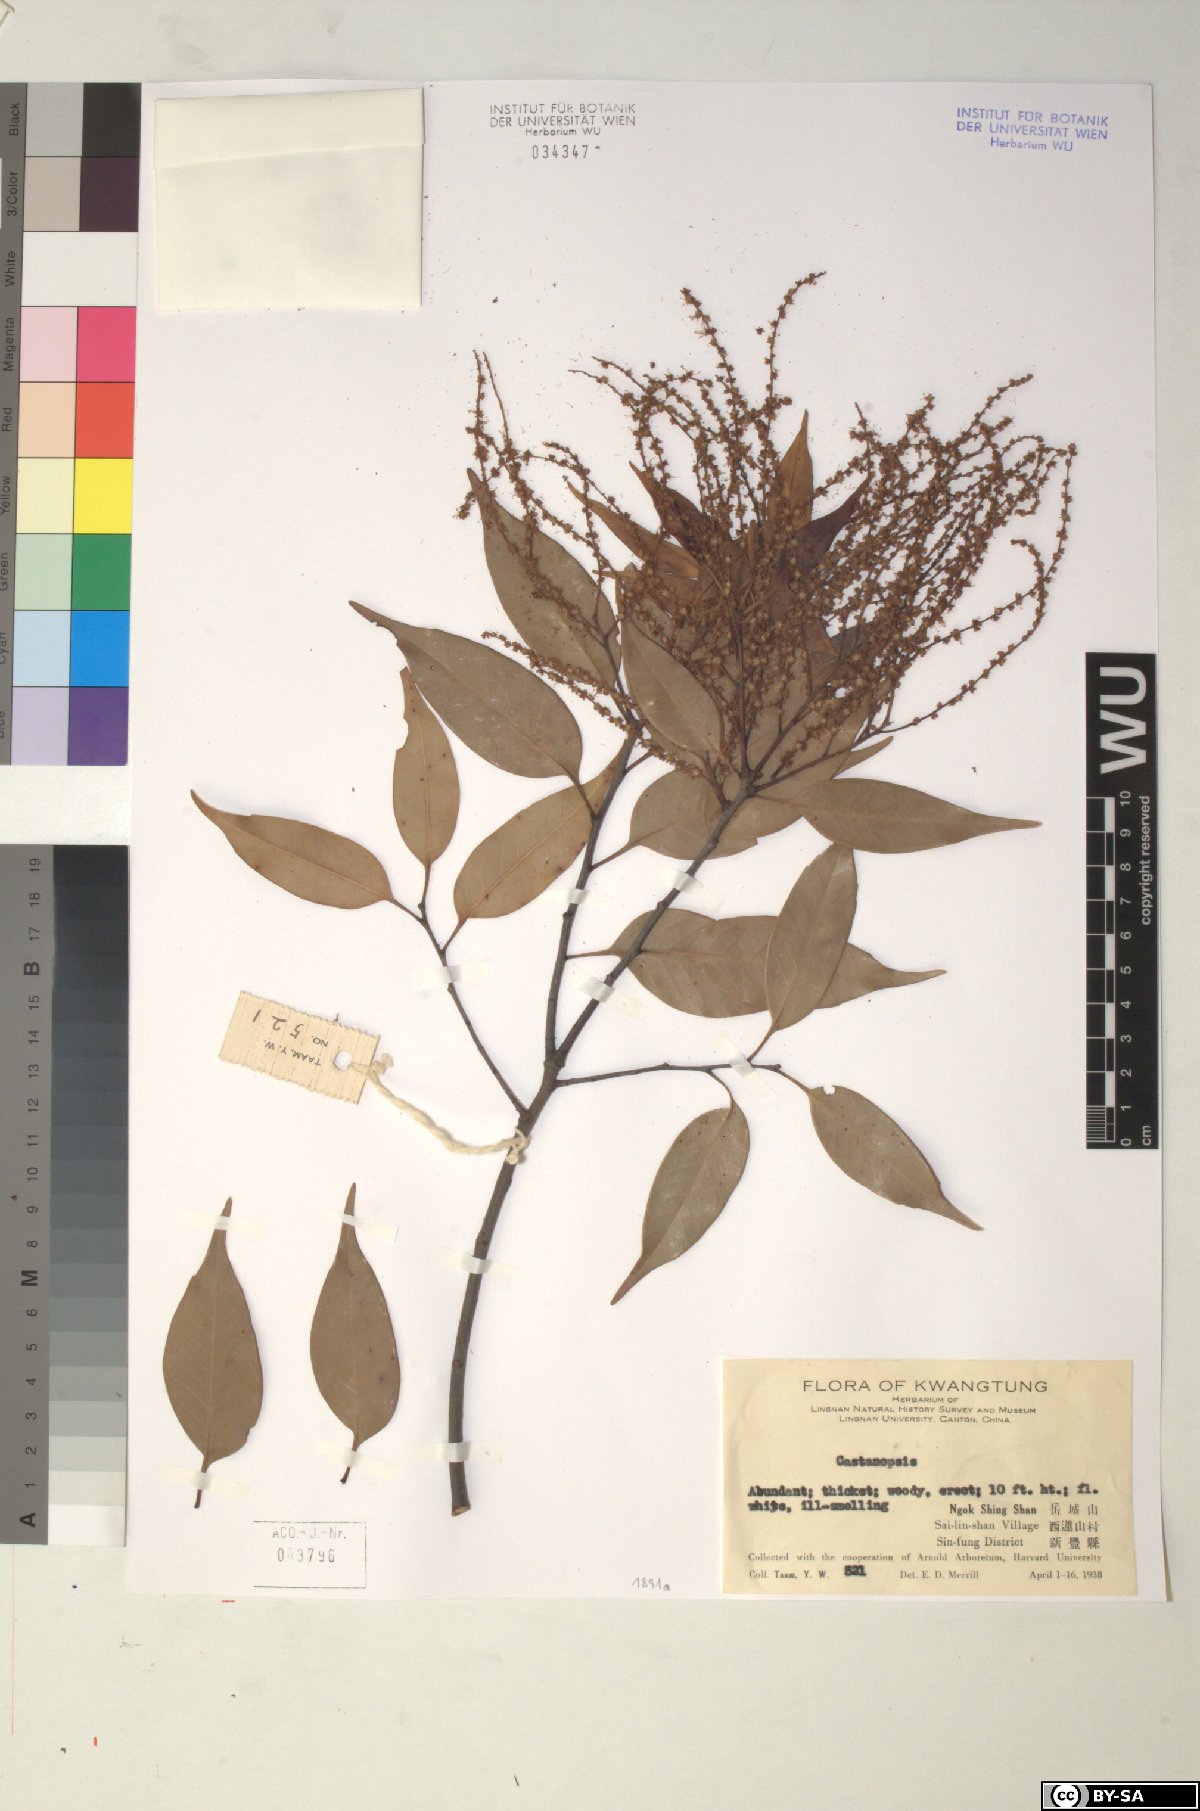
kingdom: Plantae
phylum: Tracheophyta
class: Magnoliopsida
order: Fagales
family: Fagaceae
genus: Castanopsis
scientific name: Castanopsis
